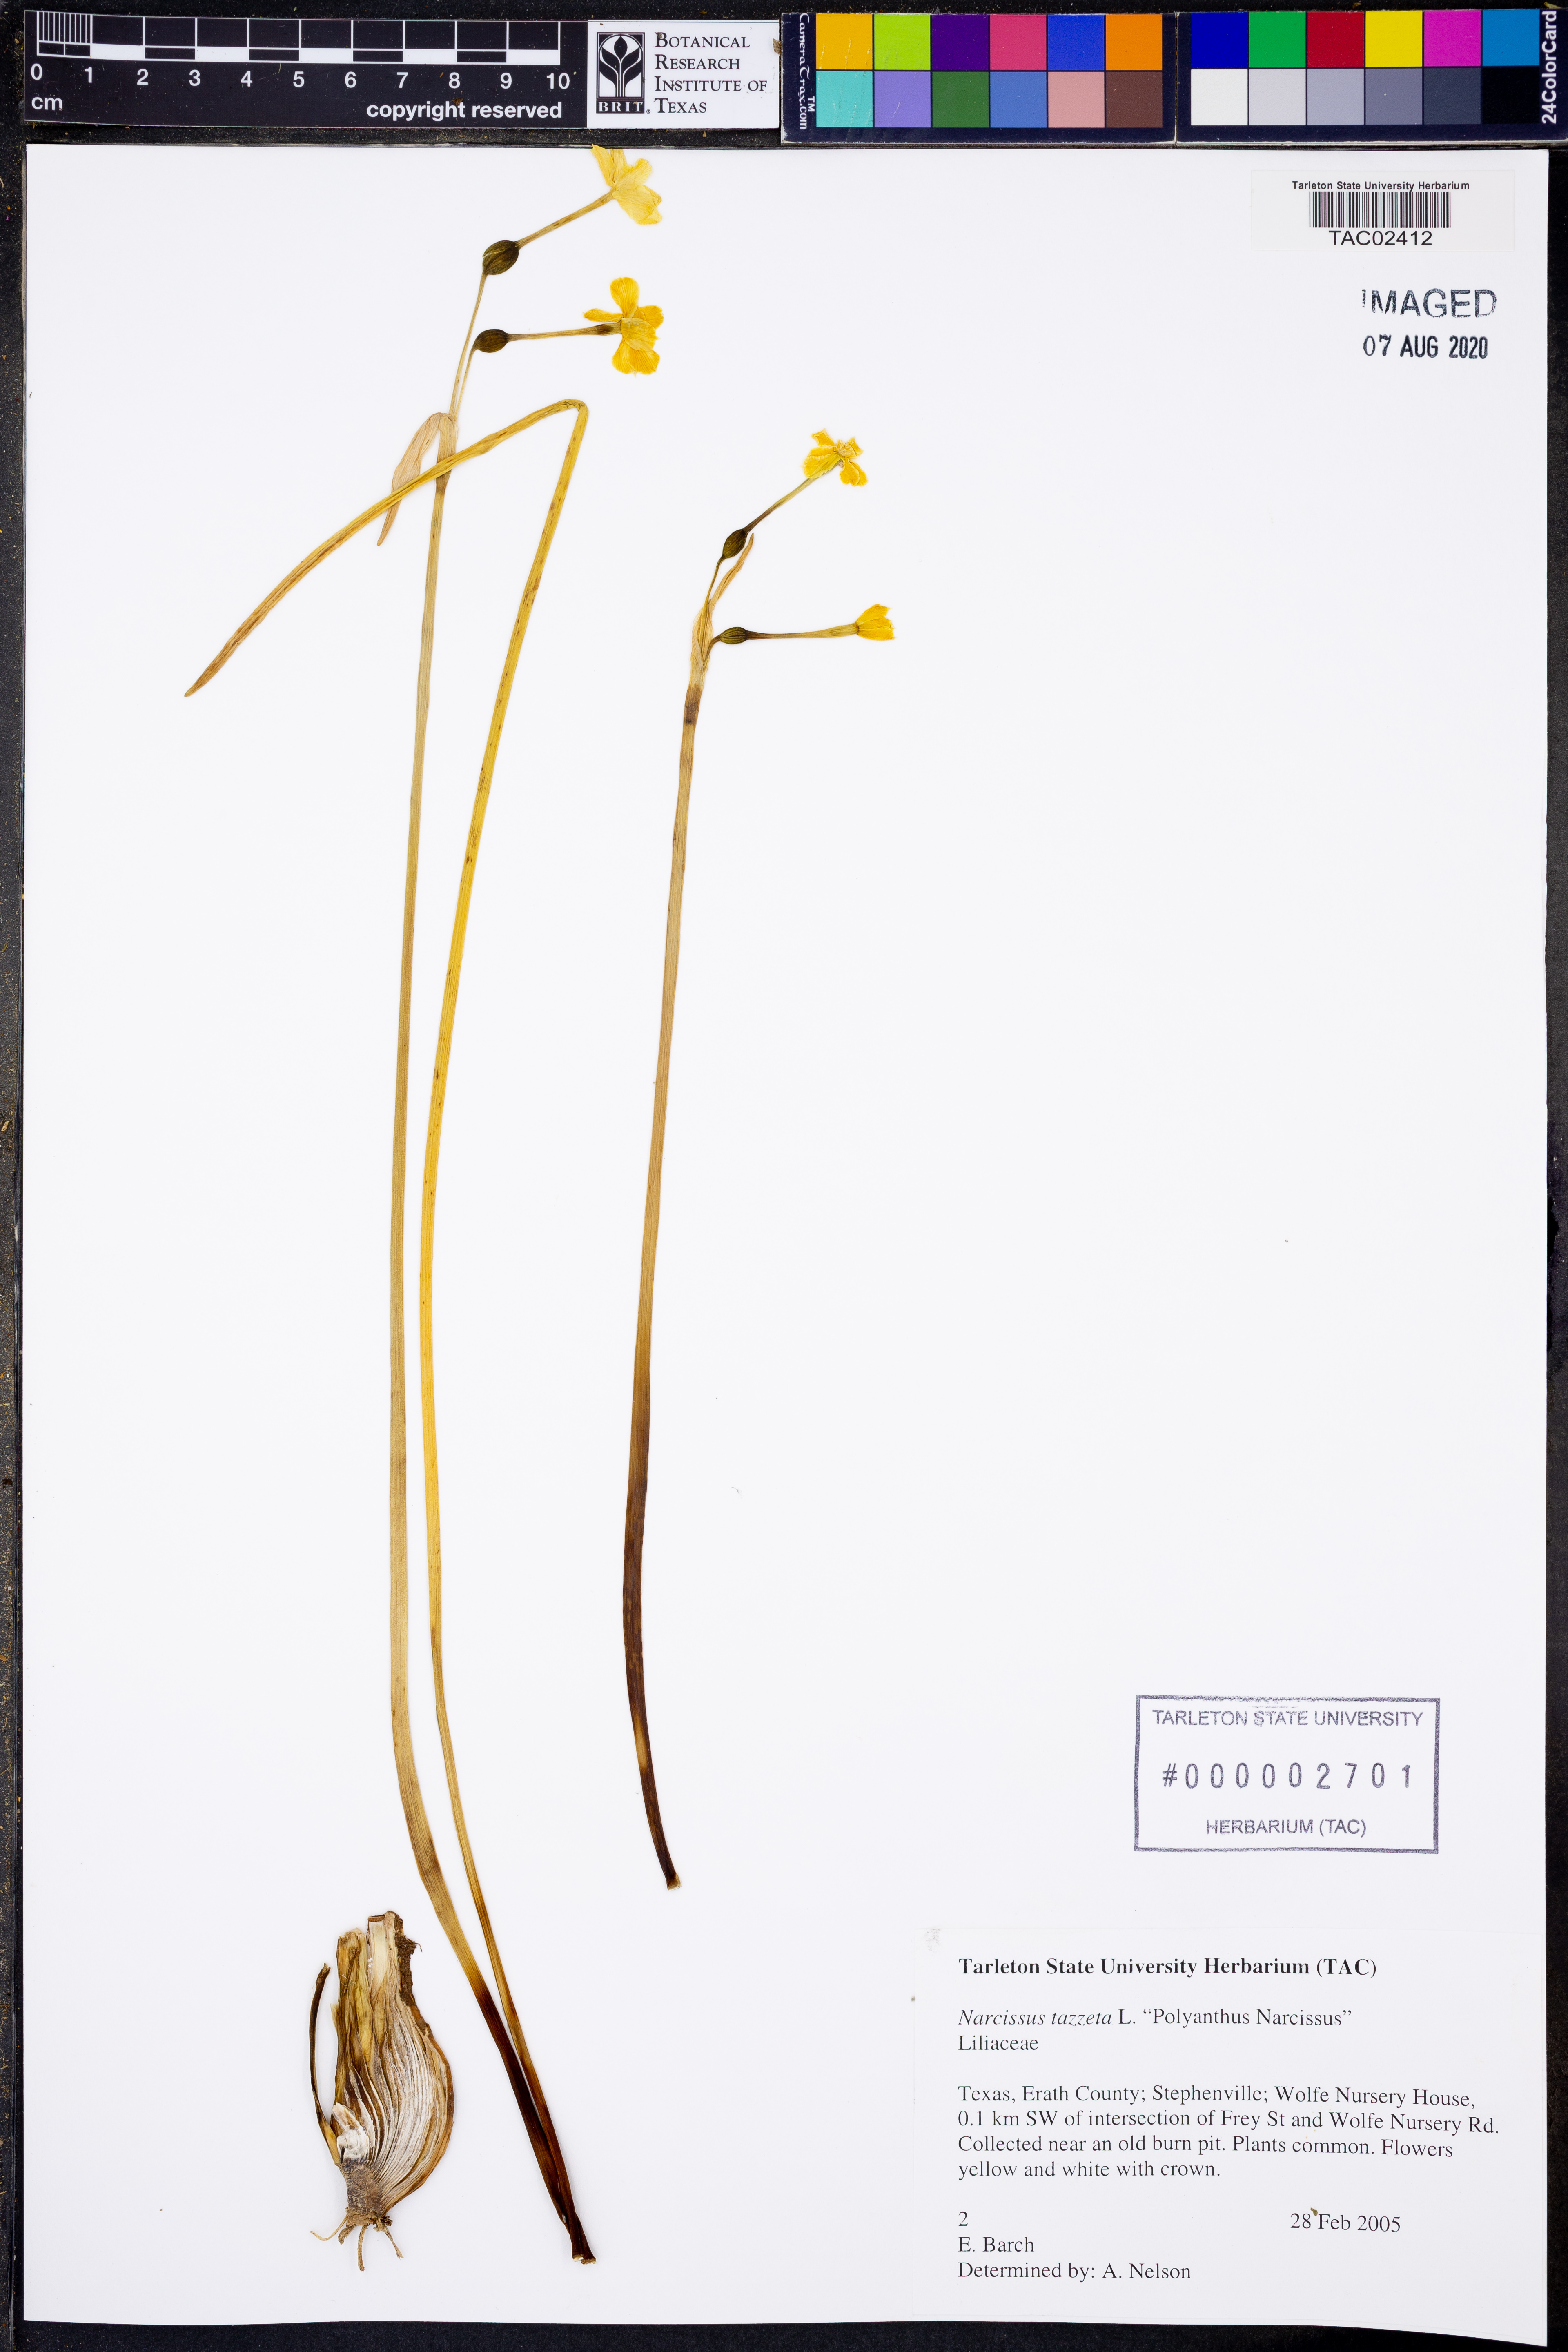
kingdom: Plantae
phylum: Tracheophyta
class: Liliopsida
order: Asparagales
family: Amaryllidaceae
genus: Narcissus
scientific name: Narcissus tazetta
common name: Bunch-flowered daffodil
